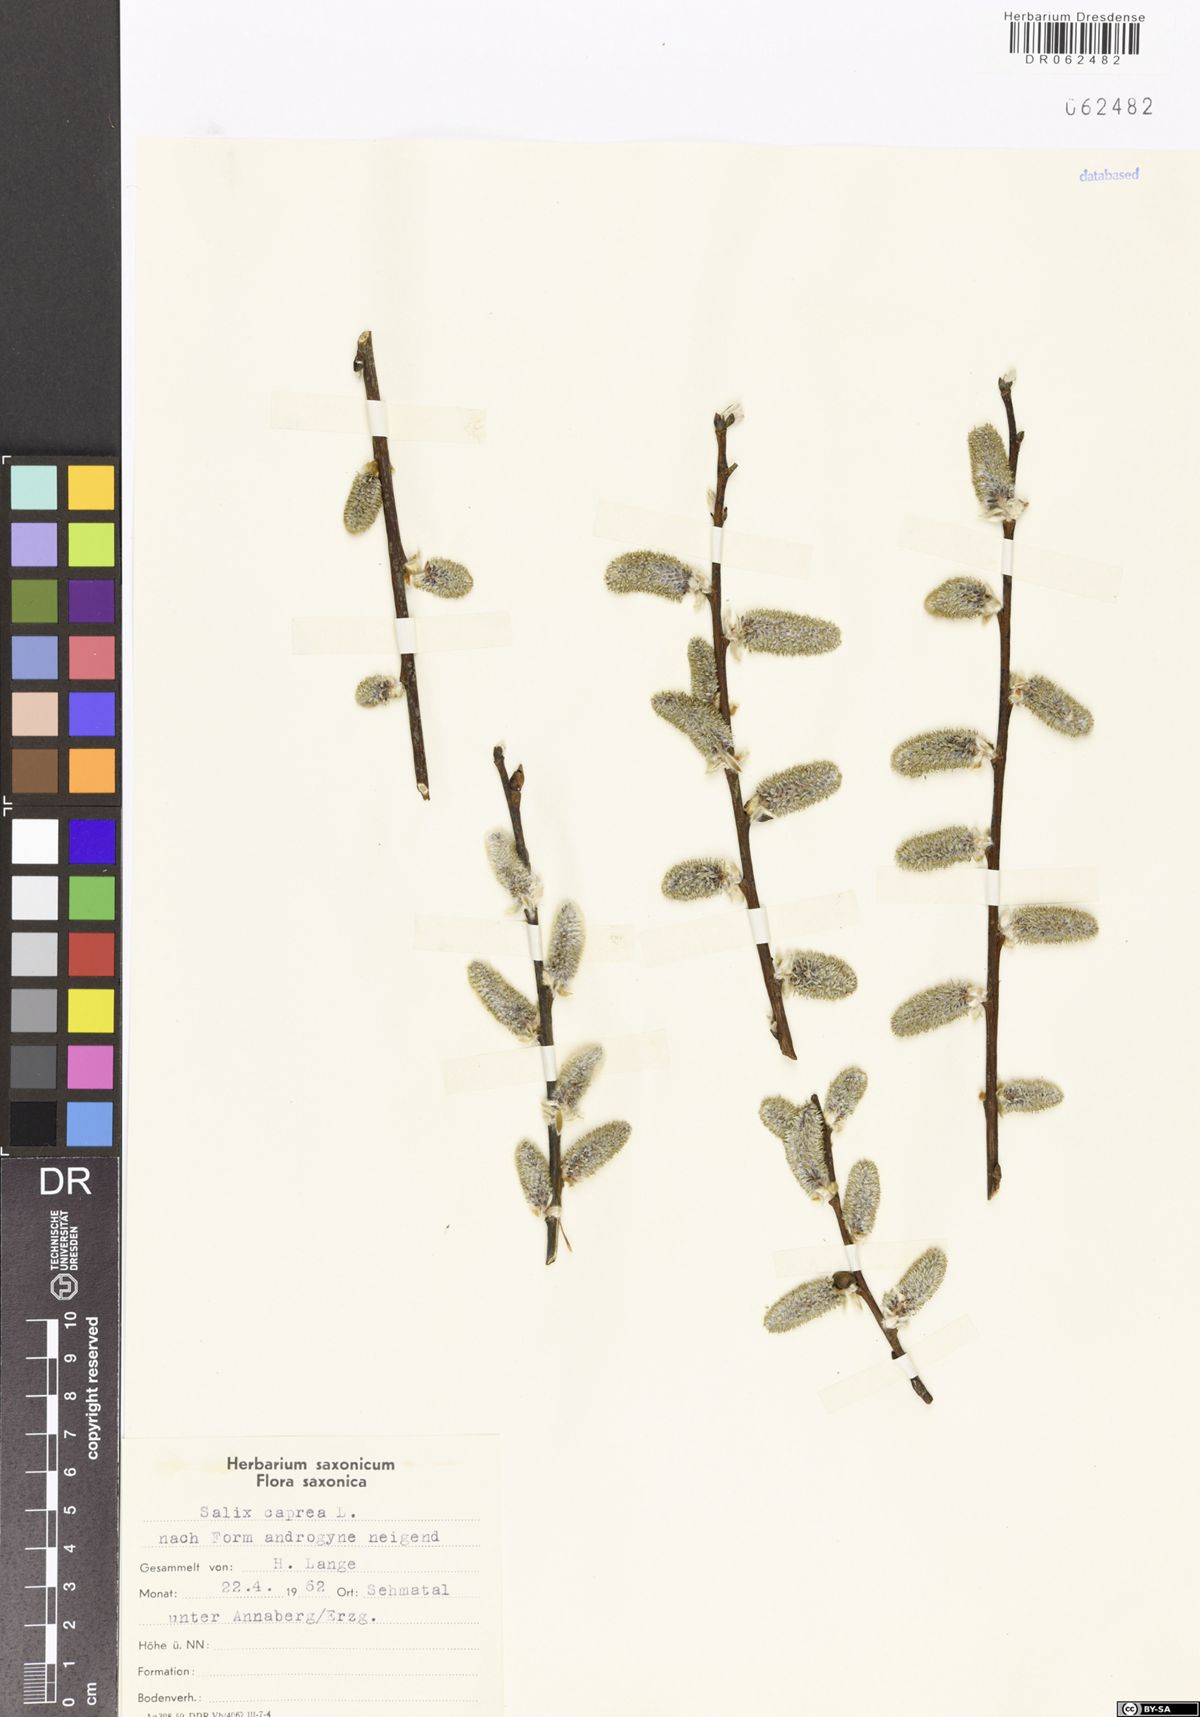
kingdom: Plantae
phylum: Tracheophyta
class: Magnoliopsida
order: Malpighiales
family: Salicaceae
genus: Salix
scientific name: Salix caprea
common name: Goat willow
